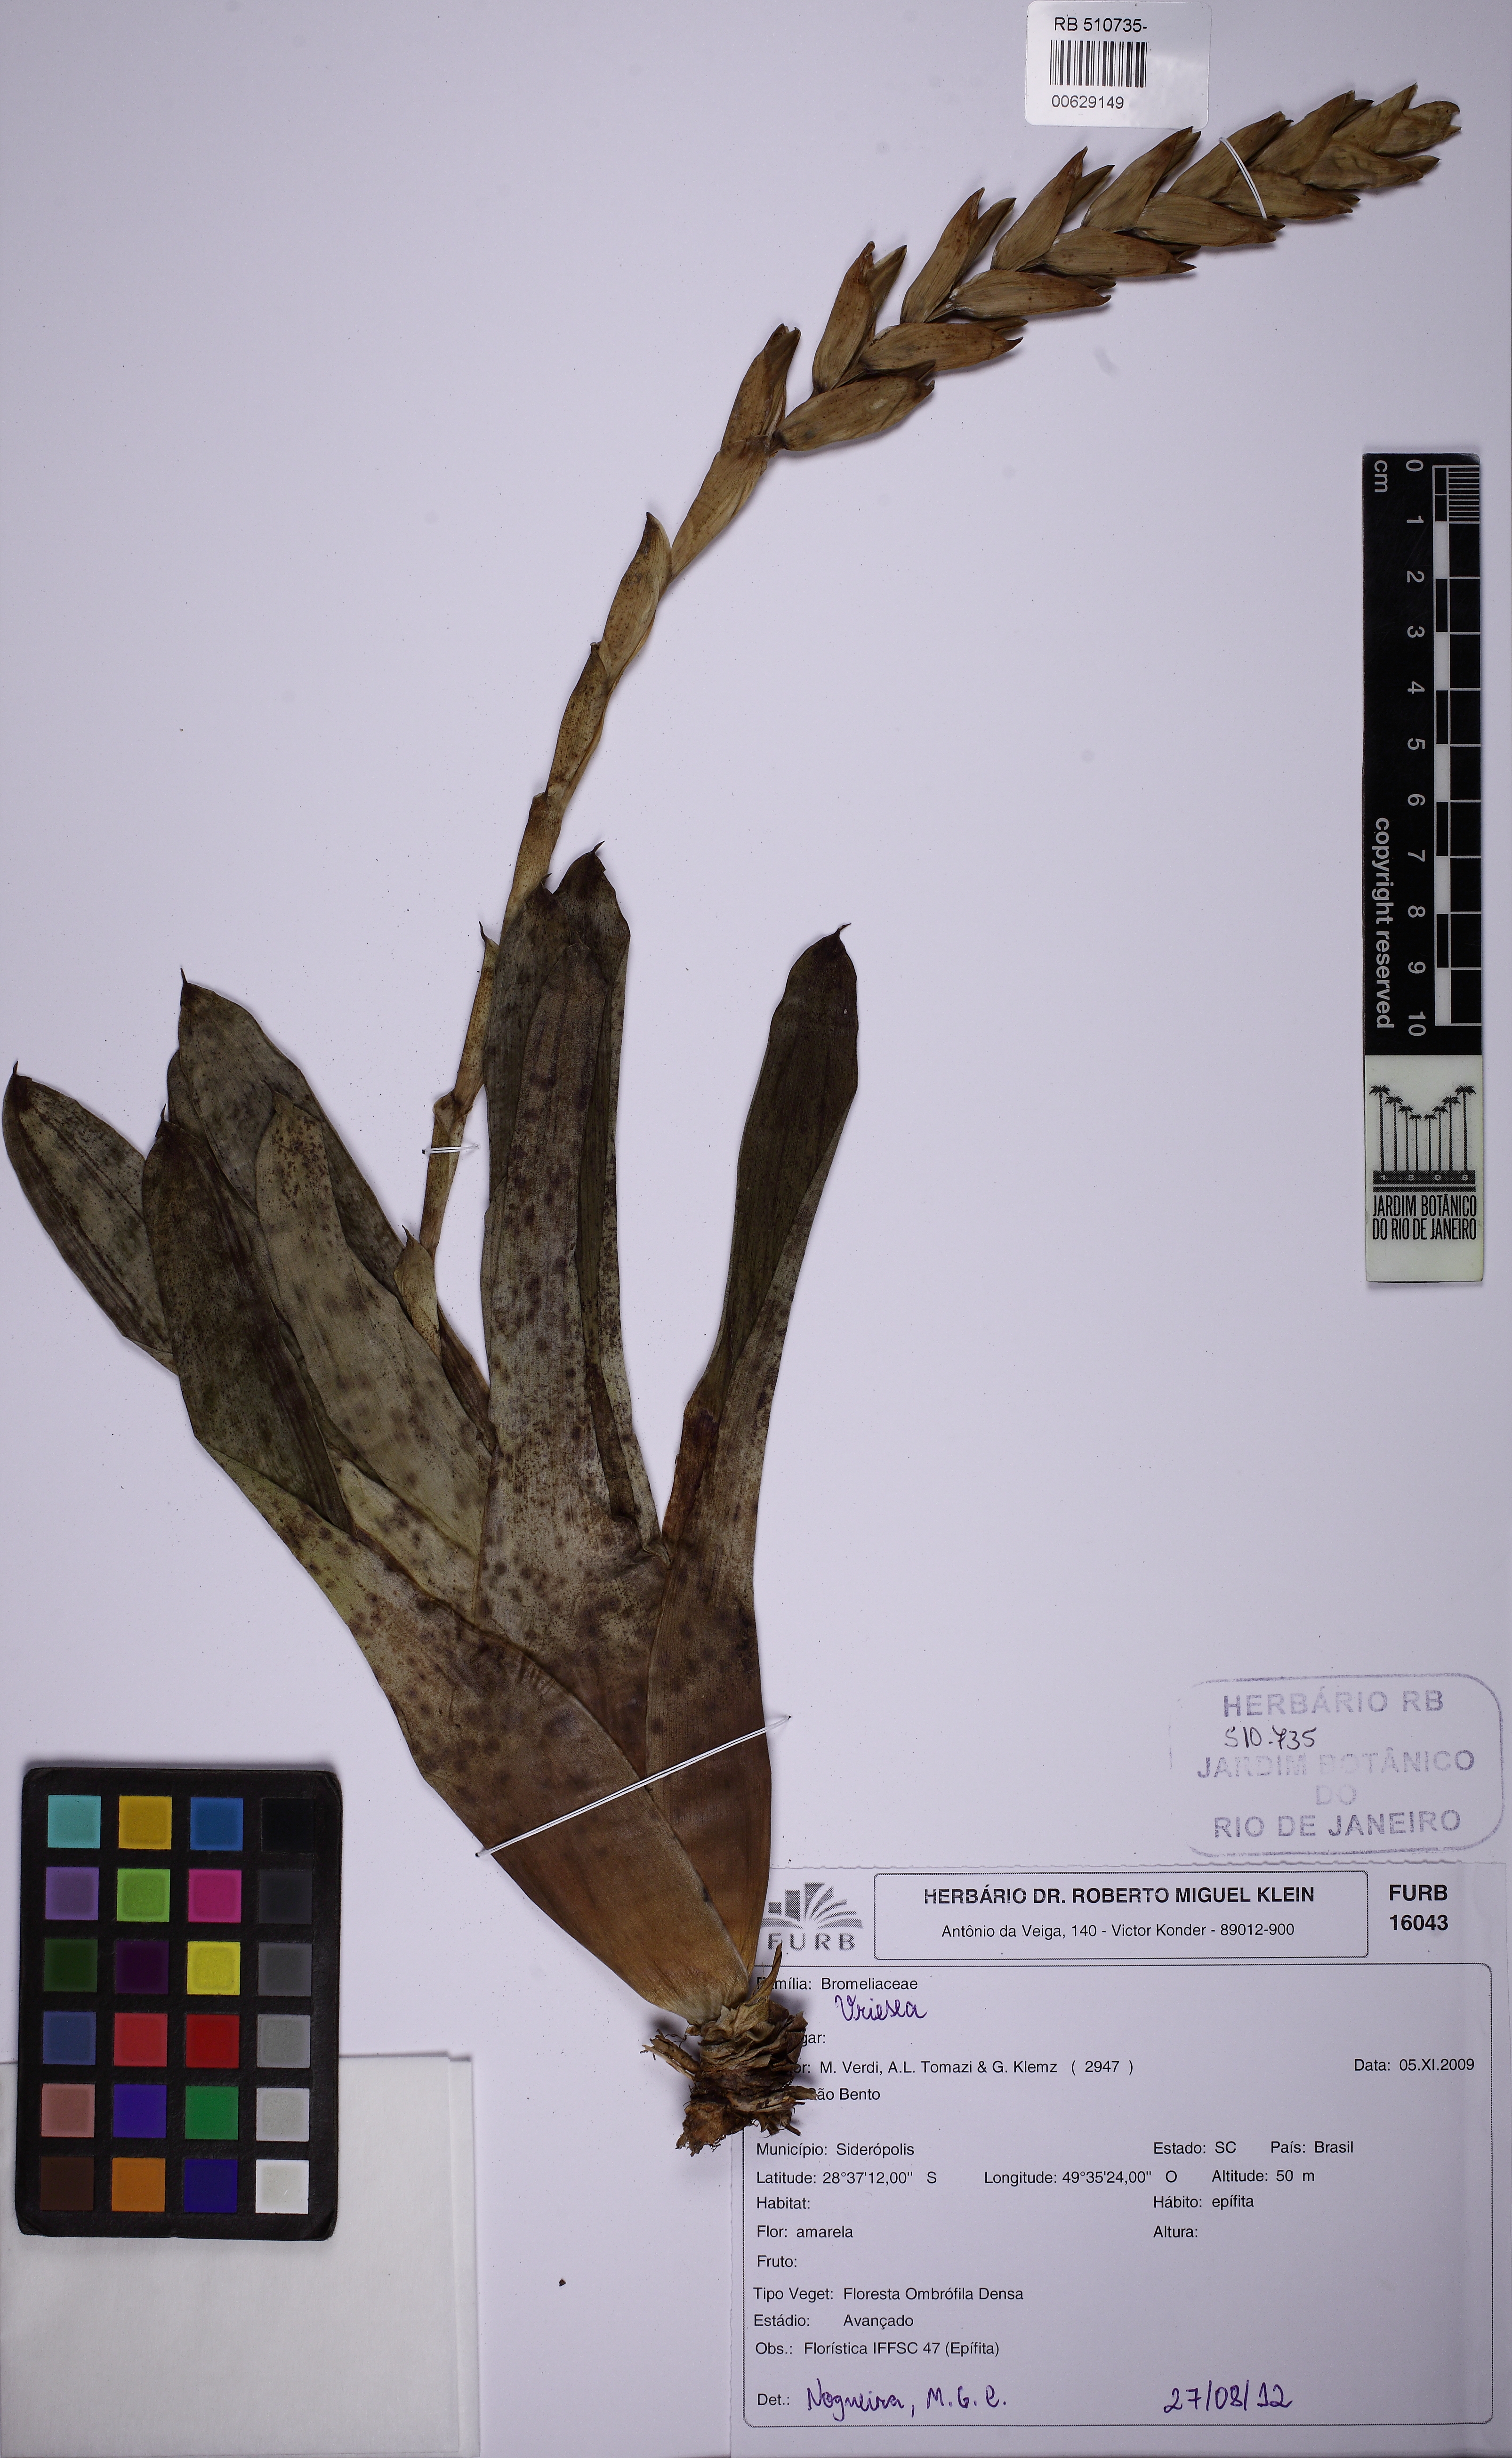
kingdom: Plantae
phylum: Tracheophyta
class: Liliopsida
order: Poales
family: Bromeliaceae
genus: Vriesea
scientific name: Vriesea guttata
